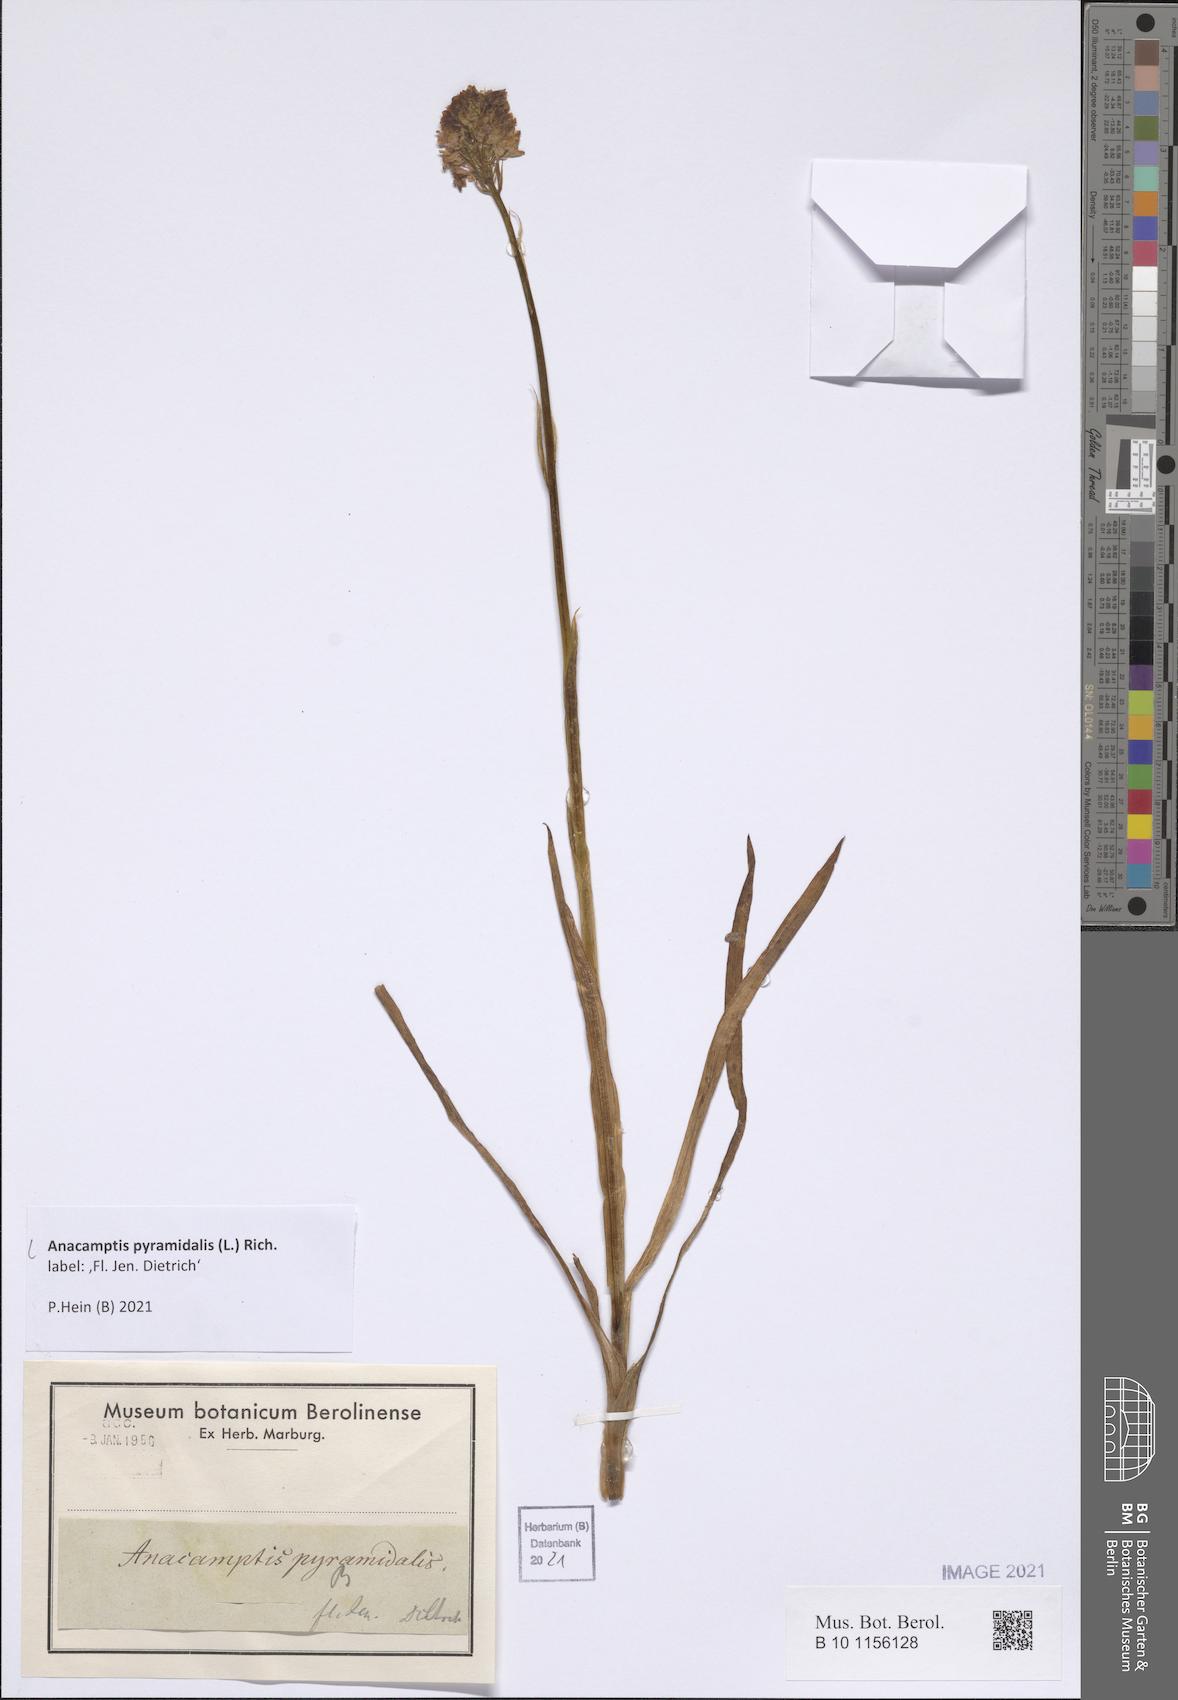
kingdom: Plantae
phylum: Tracheophyta
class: Liliopsida
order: Asparagales
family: Orchidaceae
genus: Anacamptis
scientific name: Anacamptis pyramidalis
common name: Pyramidal orchid
